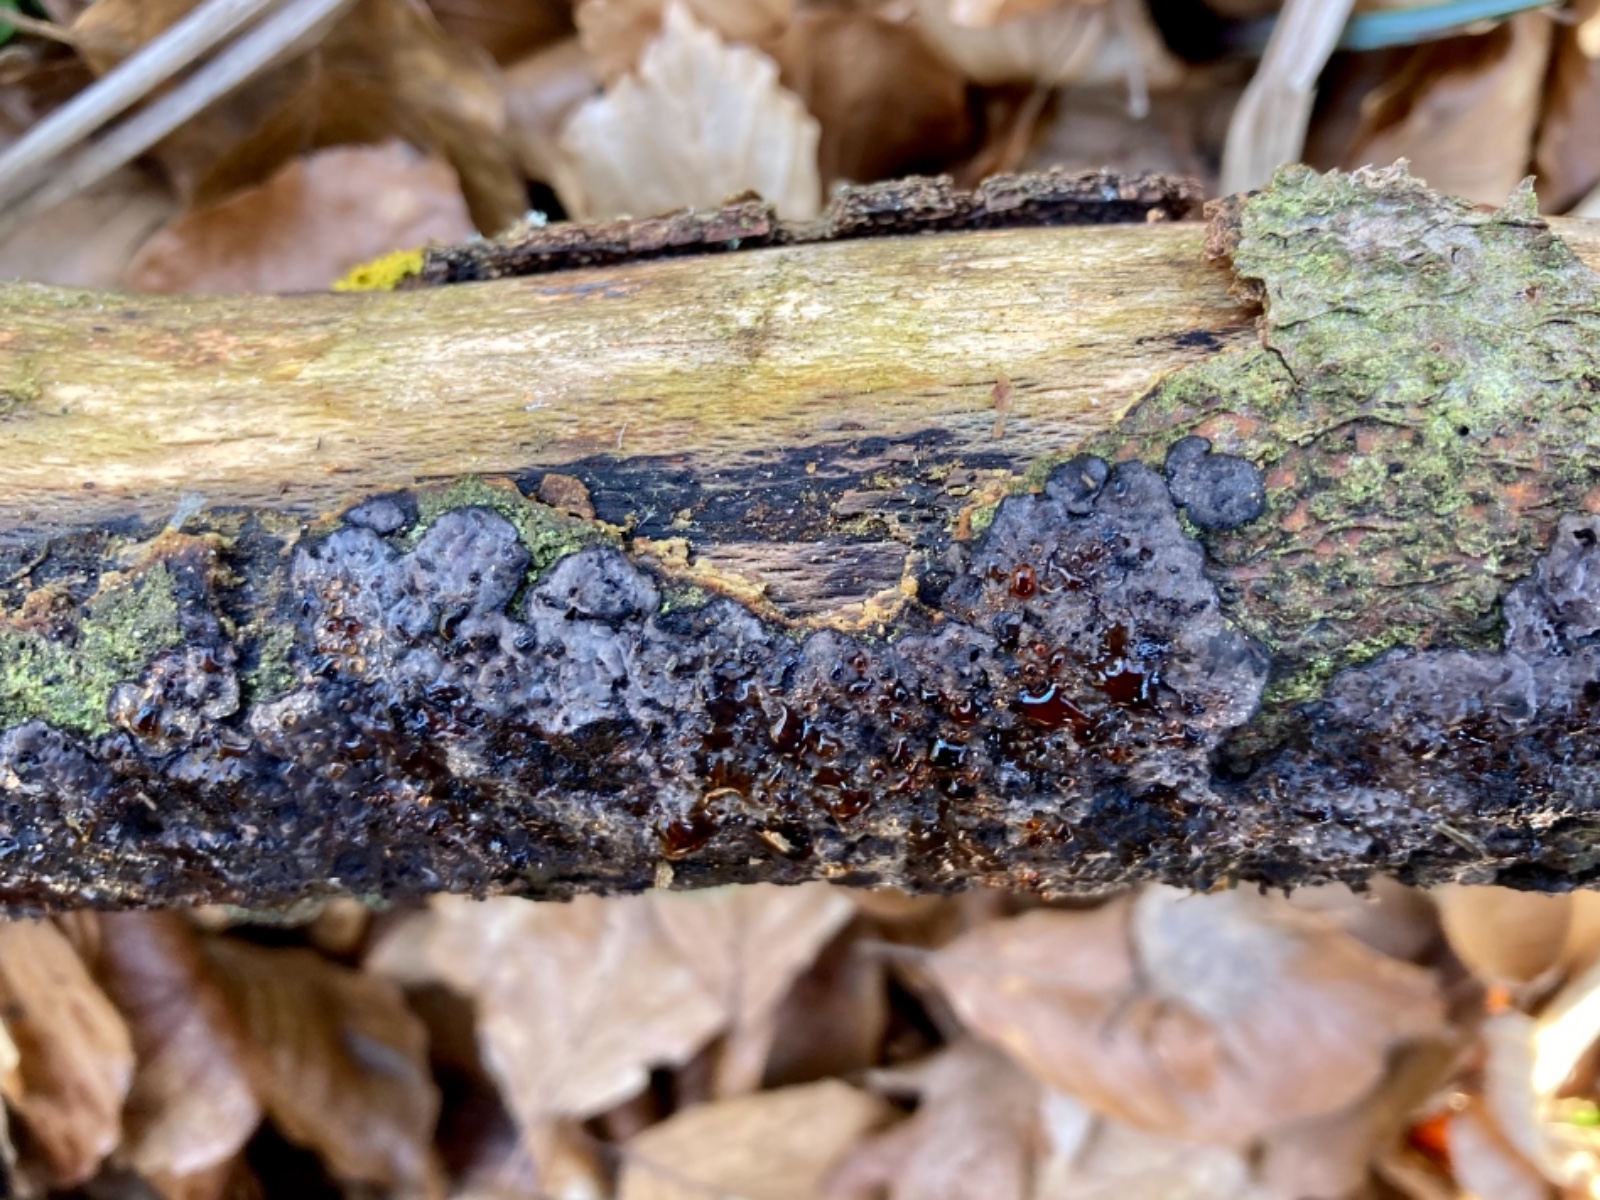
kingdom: Fungi
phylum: Basidiomycota
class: Agaricomycetes
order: Russulales
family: Peniophoraceae
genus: Peniophora
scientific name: Peniophora quercina
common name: ege-voksskind
